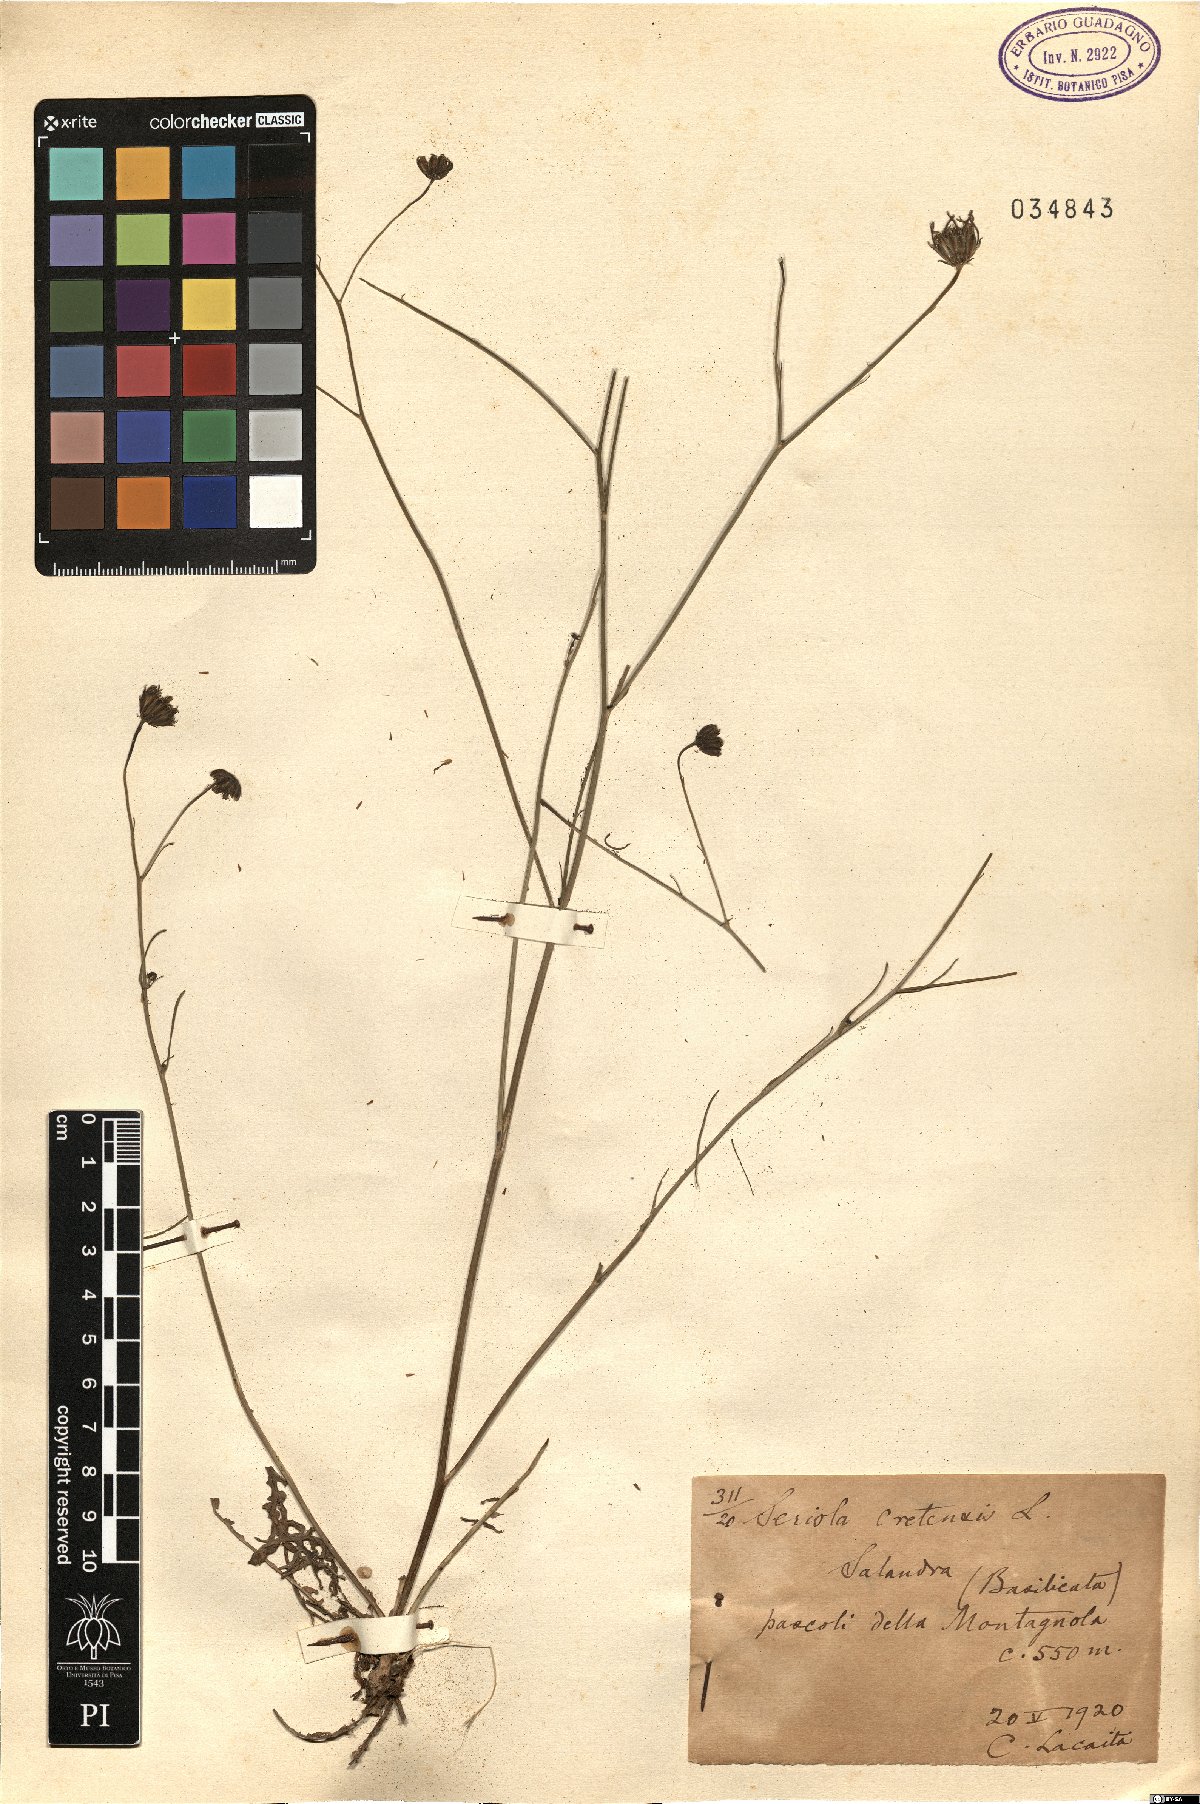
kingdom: Plantae
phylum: Tracheophyta
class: Magnoliopsida
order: Asterales
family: Asteraceae
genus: Hypochaeris
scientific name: Hypochaeris cretensis
